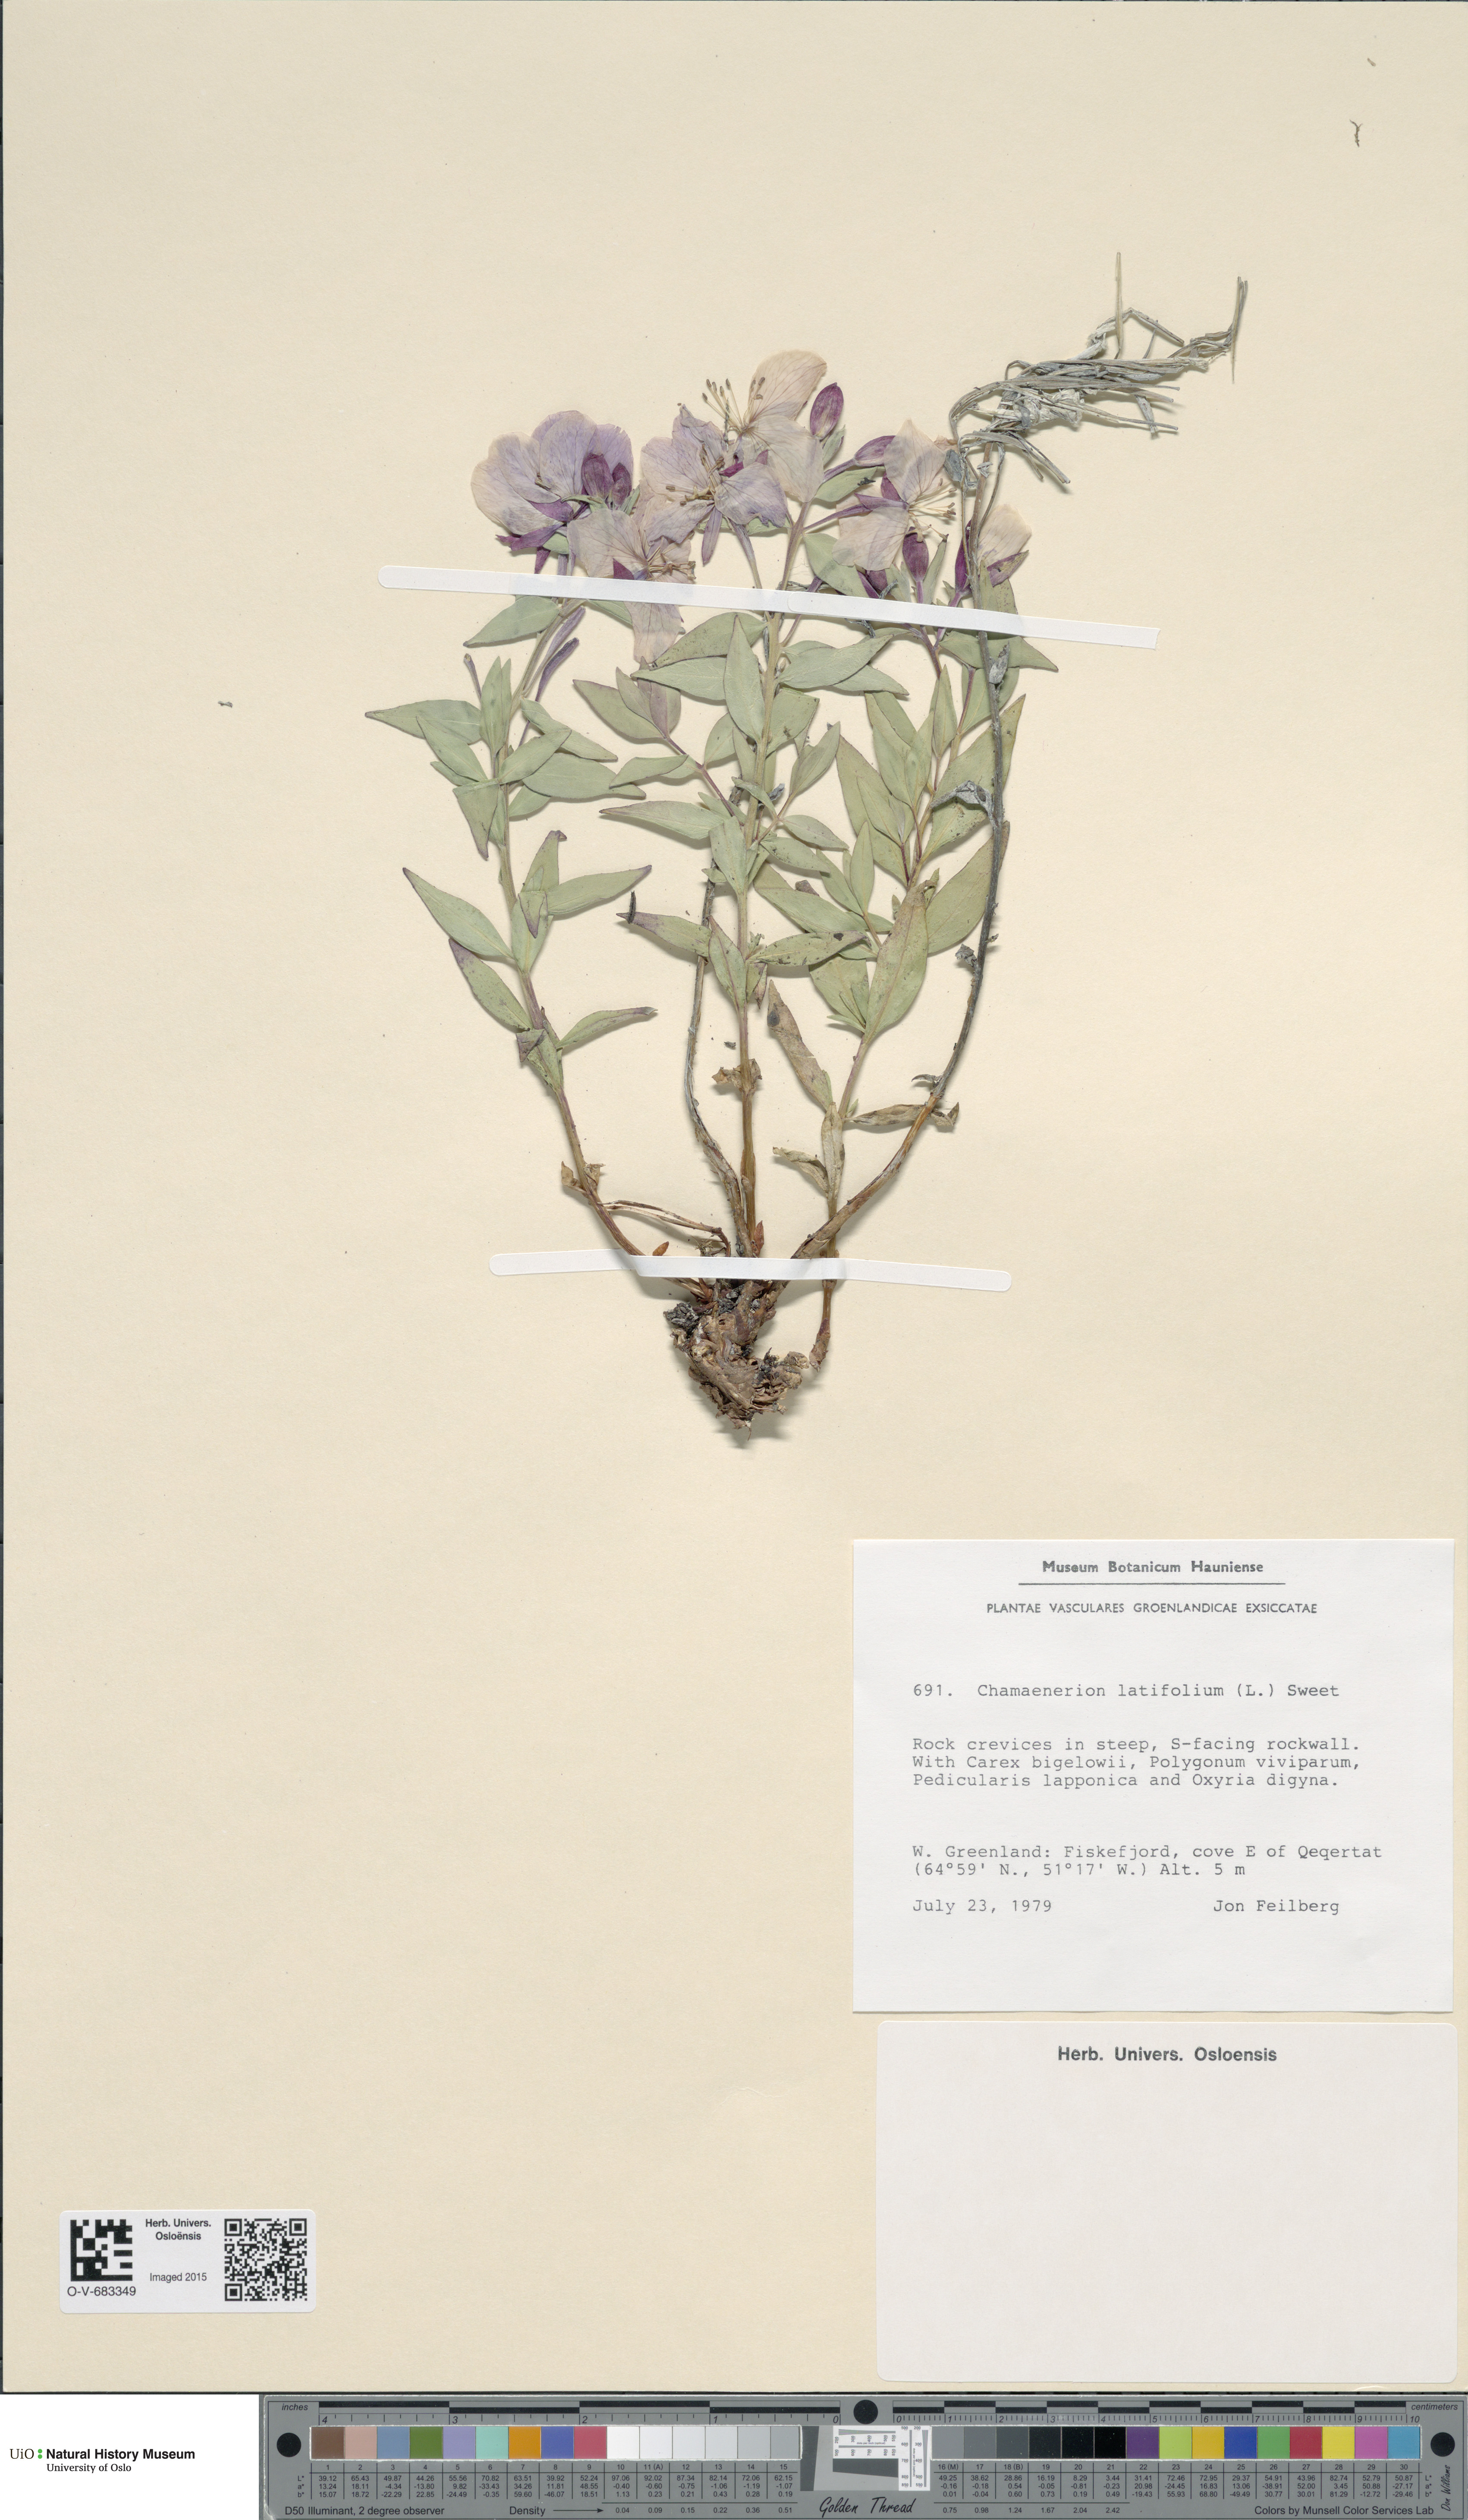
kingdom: Plantae
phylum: Tracheophyta
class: Magnoliopsida
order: Myrtales
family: Onagraceae
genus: Chamaenerion
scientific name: Chamaenerion latifolium
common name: Dwarf fireweed
